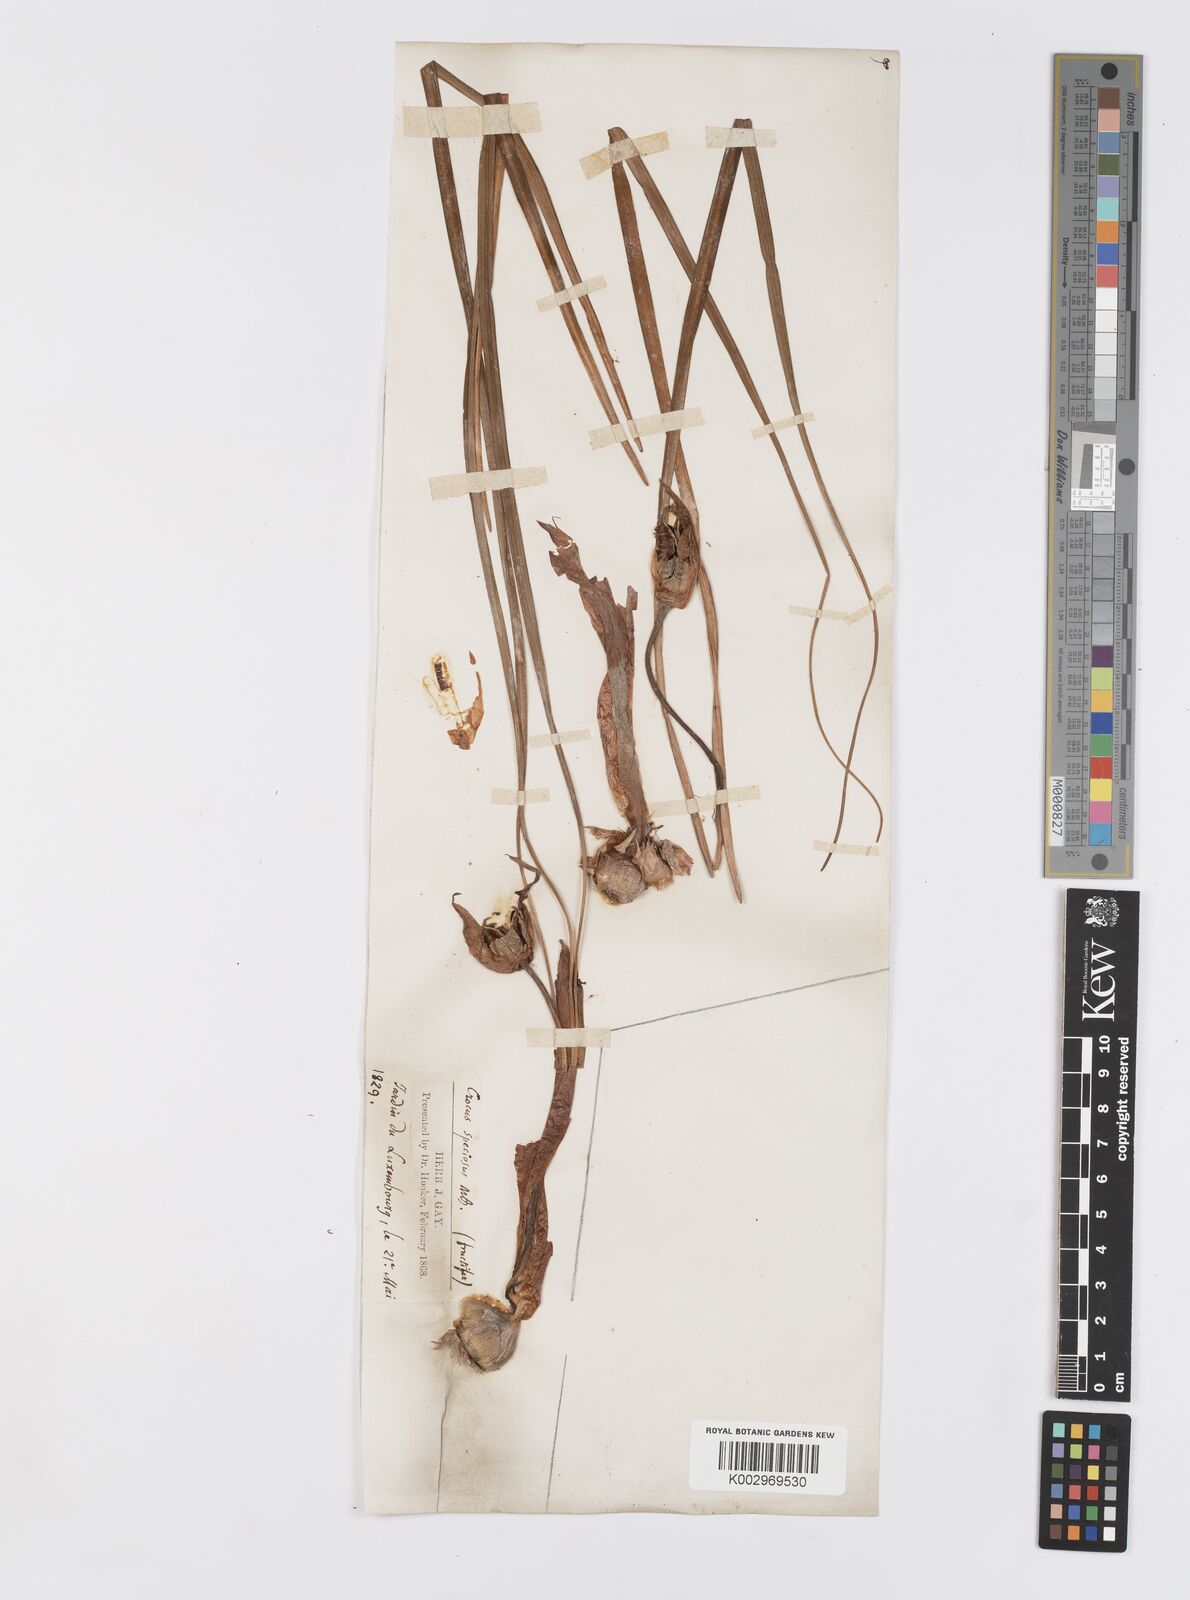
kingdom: Plantae
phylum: Tracheophyta
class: Liliopsida
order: Asparagales
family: Iridaceae
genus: Crocus
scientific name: Crocus speciosus
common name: Bieberstein's crocus
